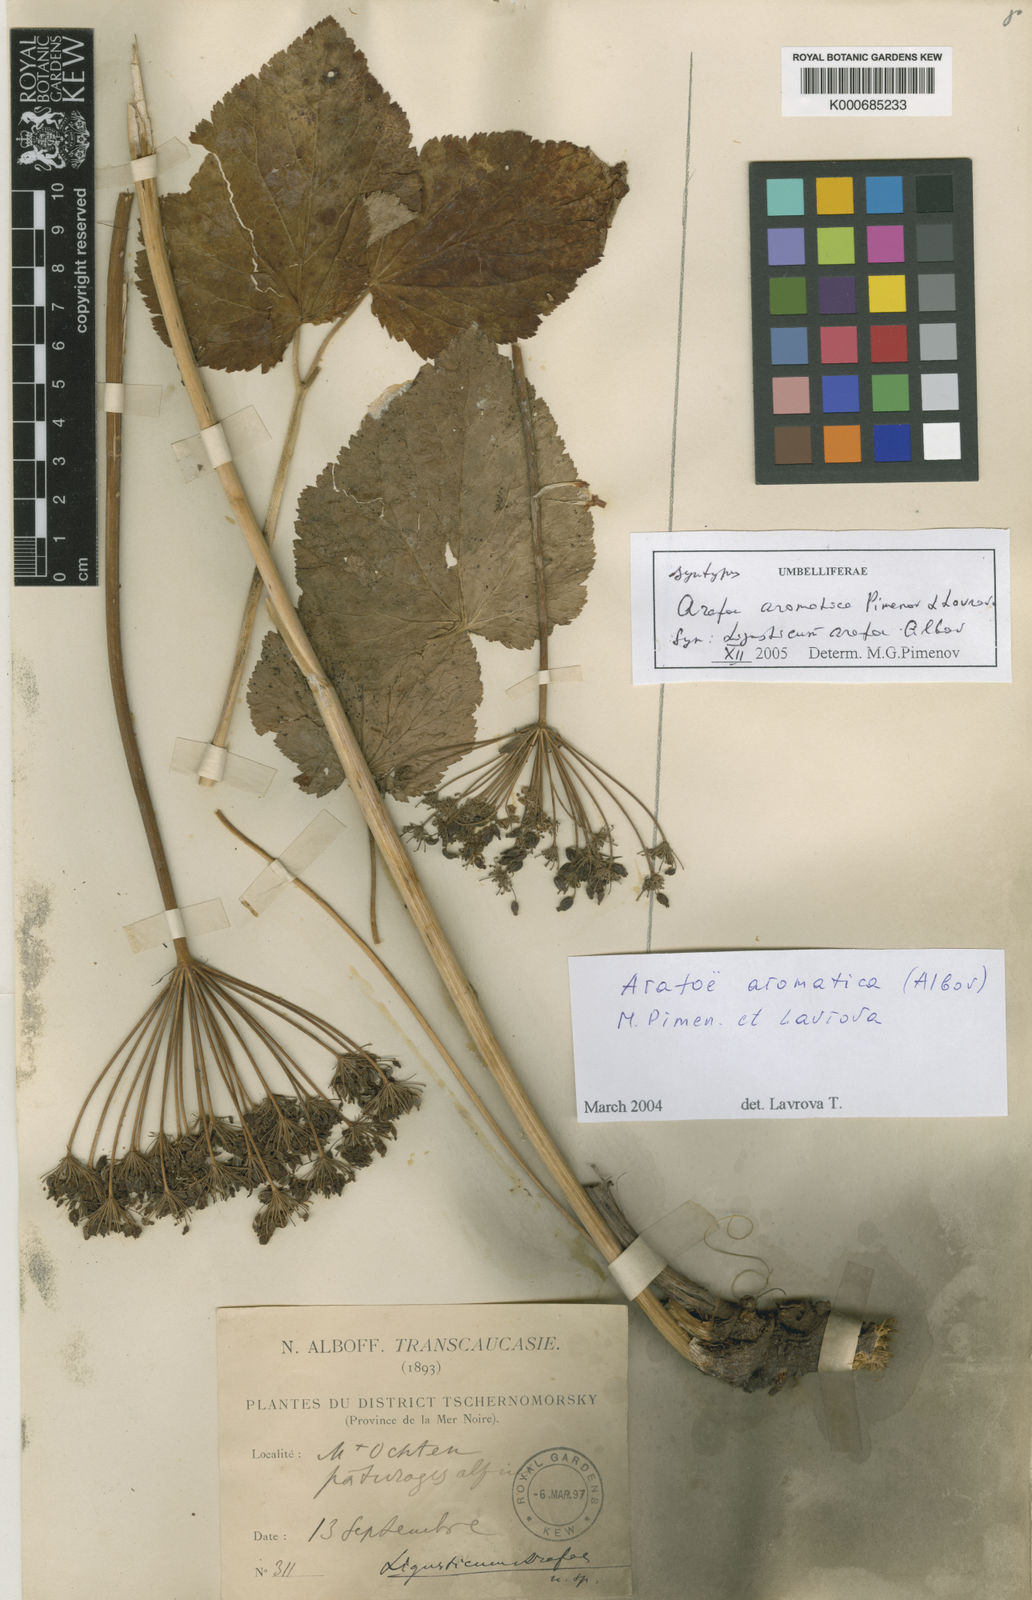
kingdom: Plantae
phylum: Tracheophyta
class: Magnoliopsida
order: Apiales
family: Apiaceae
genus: Arafoe
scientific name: Arafoe aromatica
